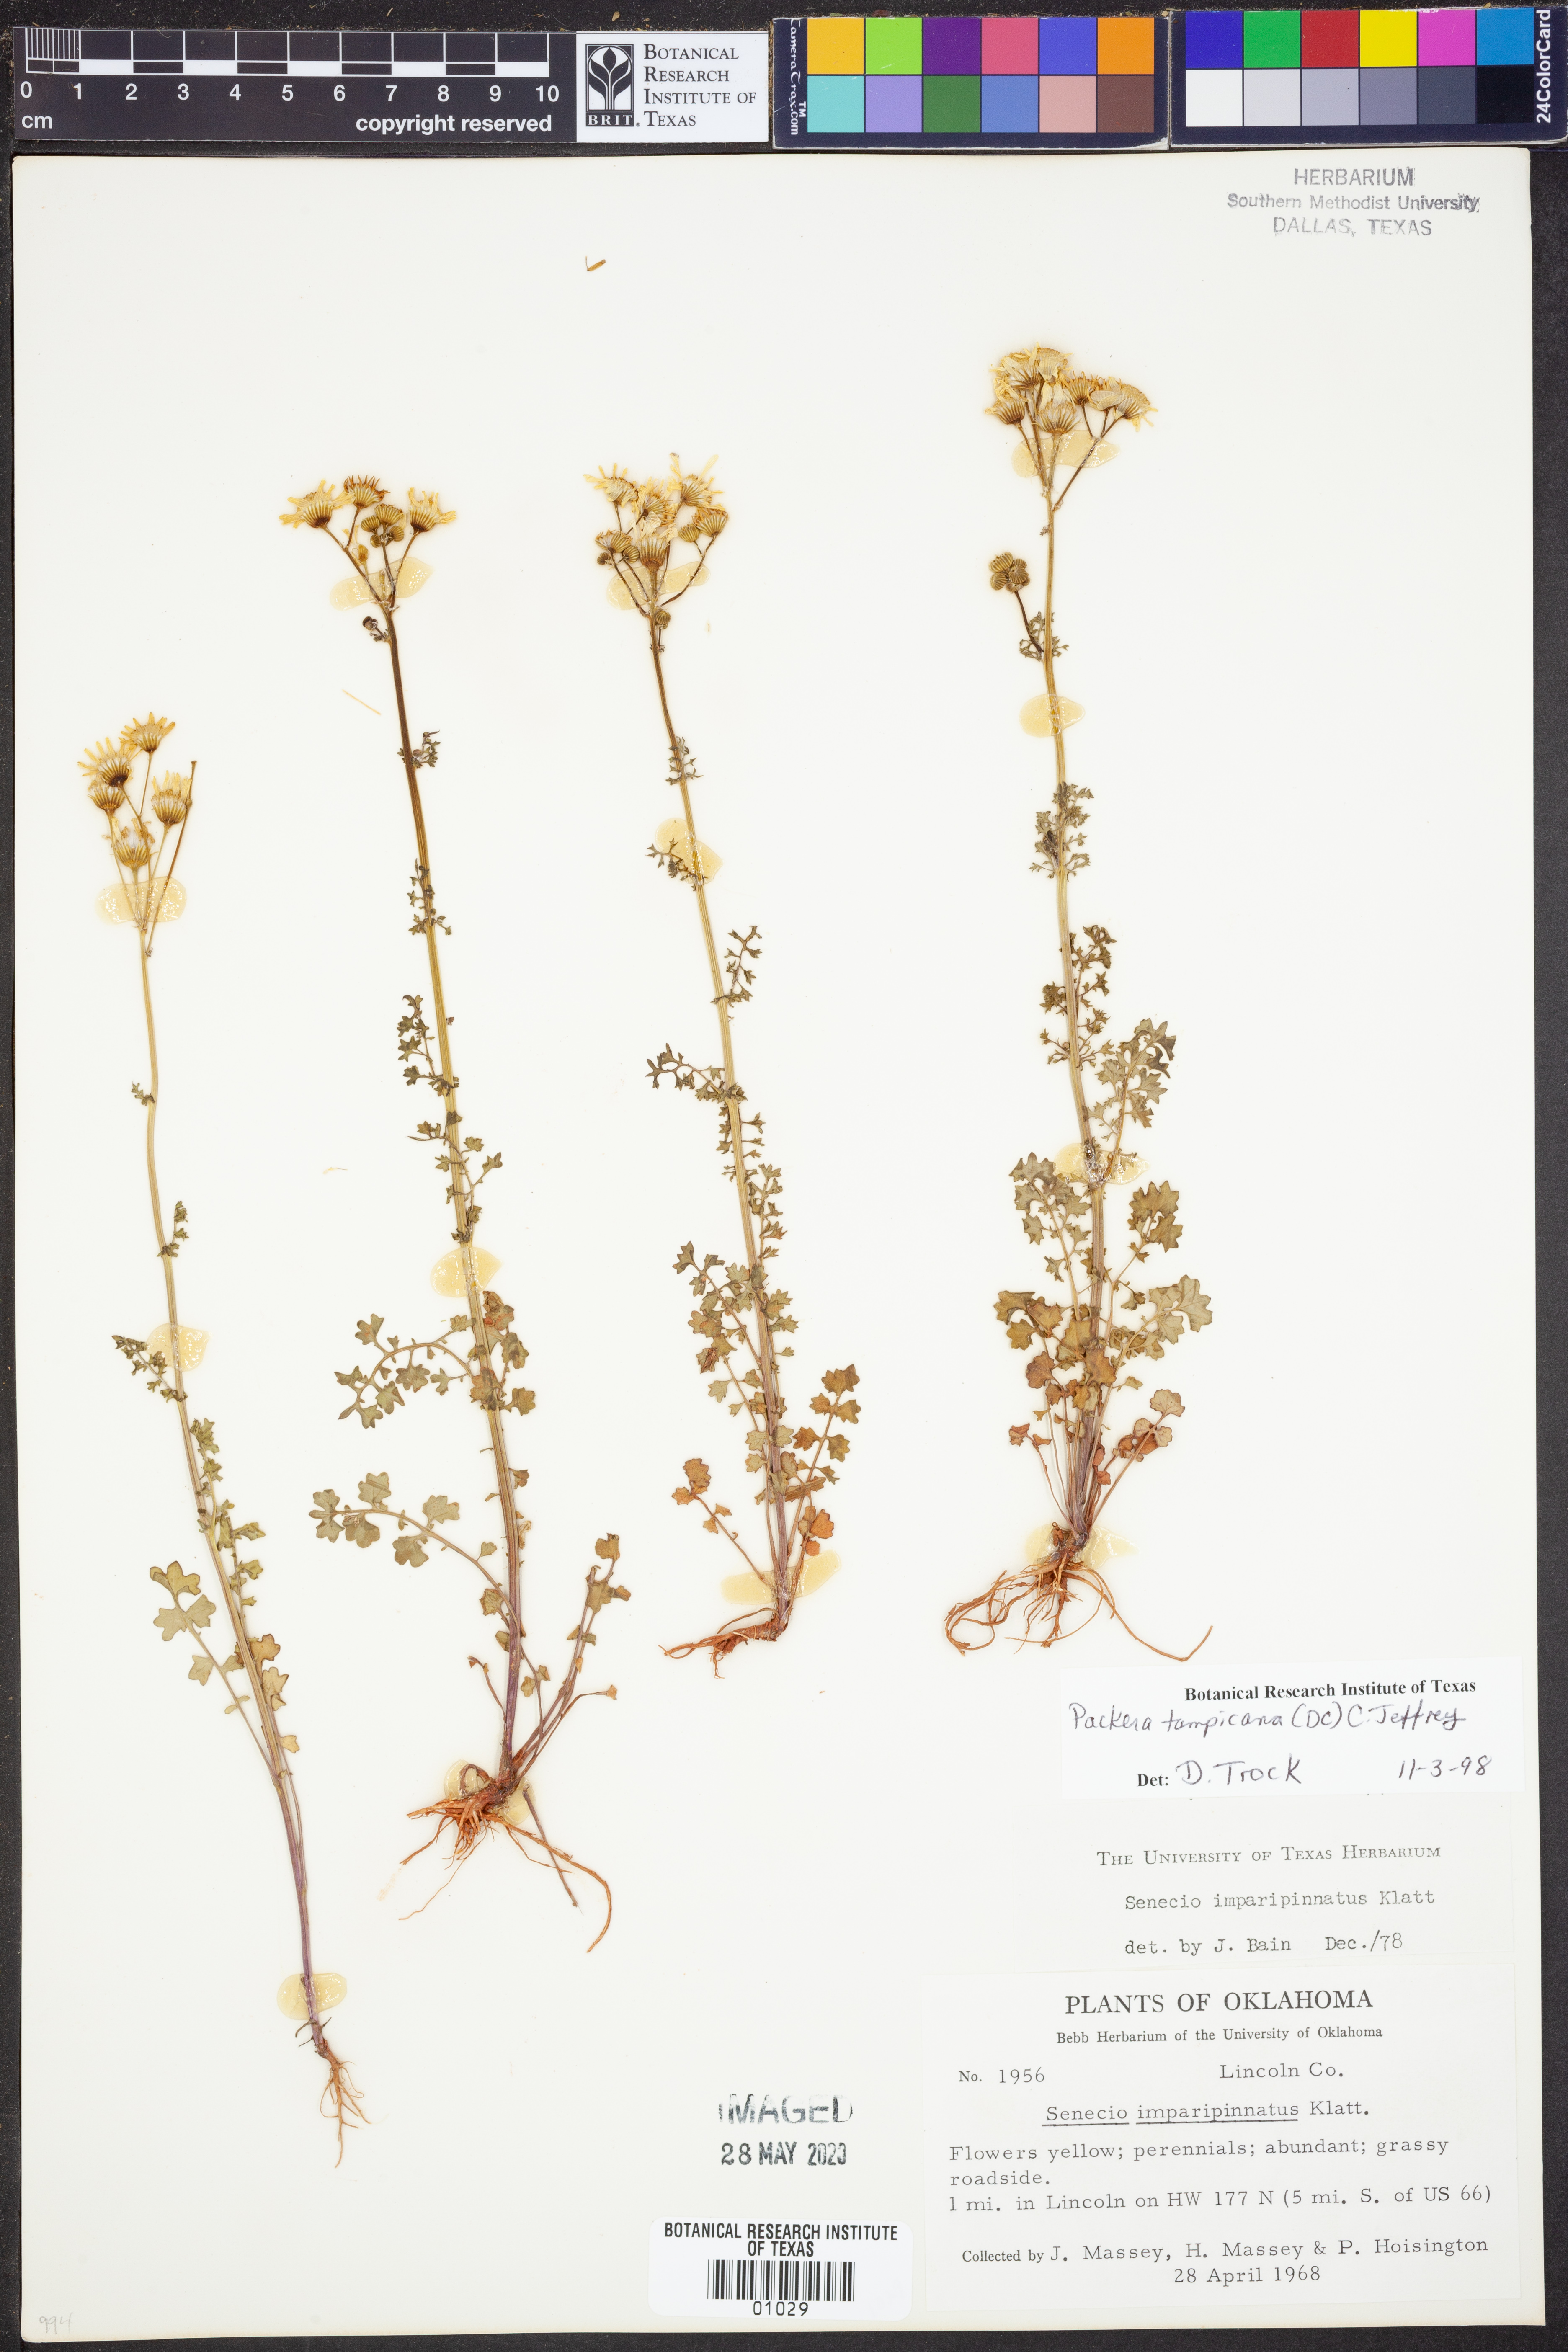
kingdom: Plantae
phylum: Tracheophyta
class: Magnoliopsida
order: Asterales
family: Asteraceae
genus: Packera
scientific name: Packera tampicana
